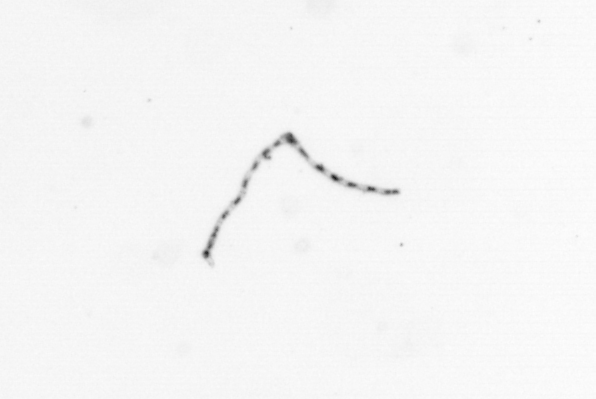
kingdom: Chromista
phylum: Ochrophyta
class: Bacillariophyceae
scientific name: Bacillariophyceae
